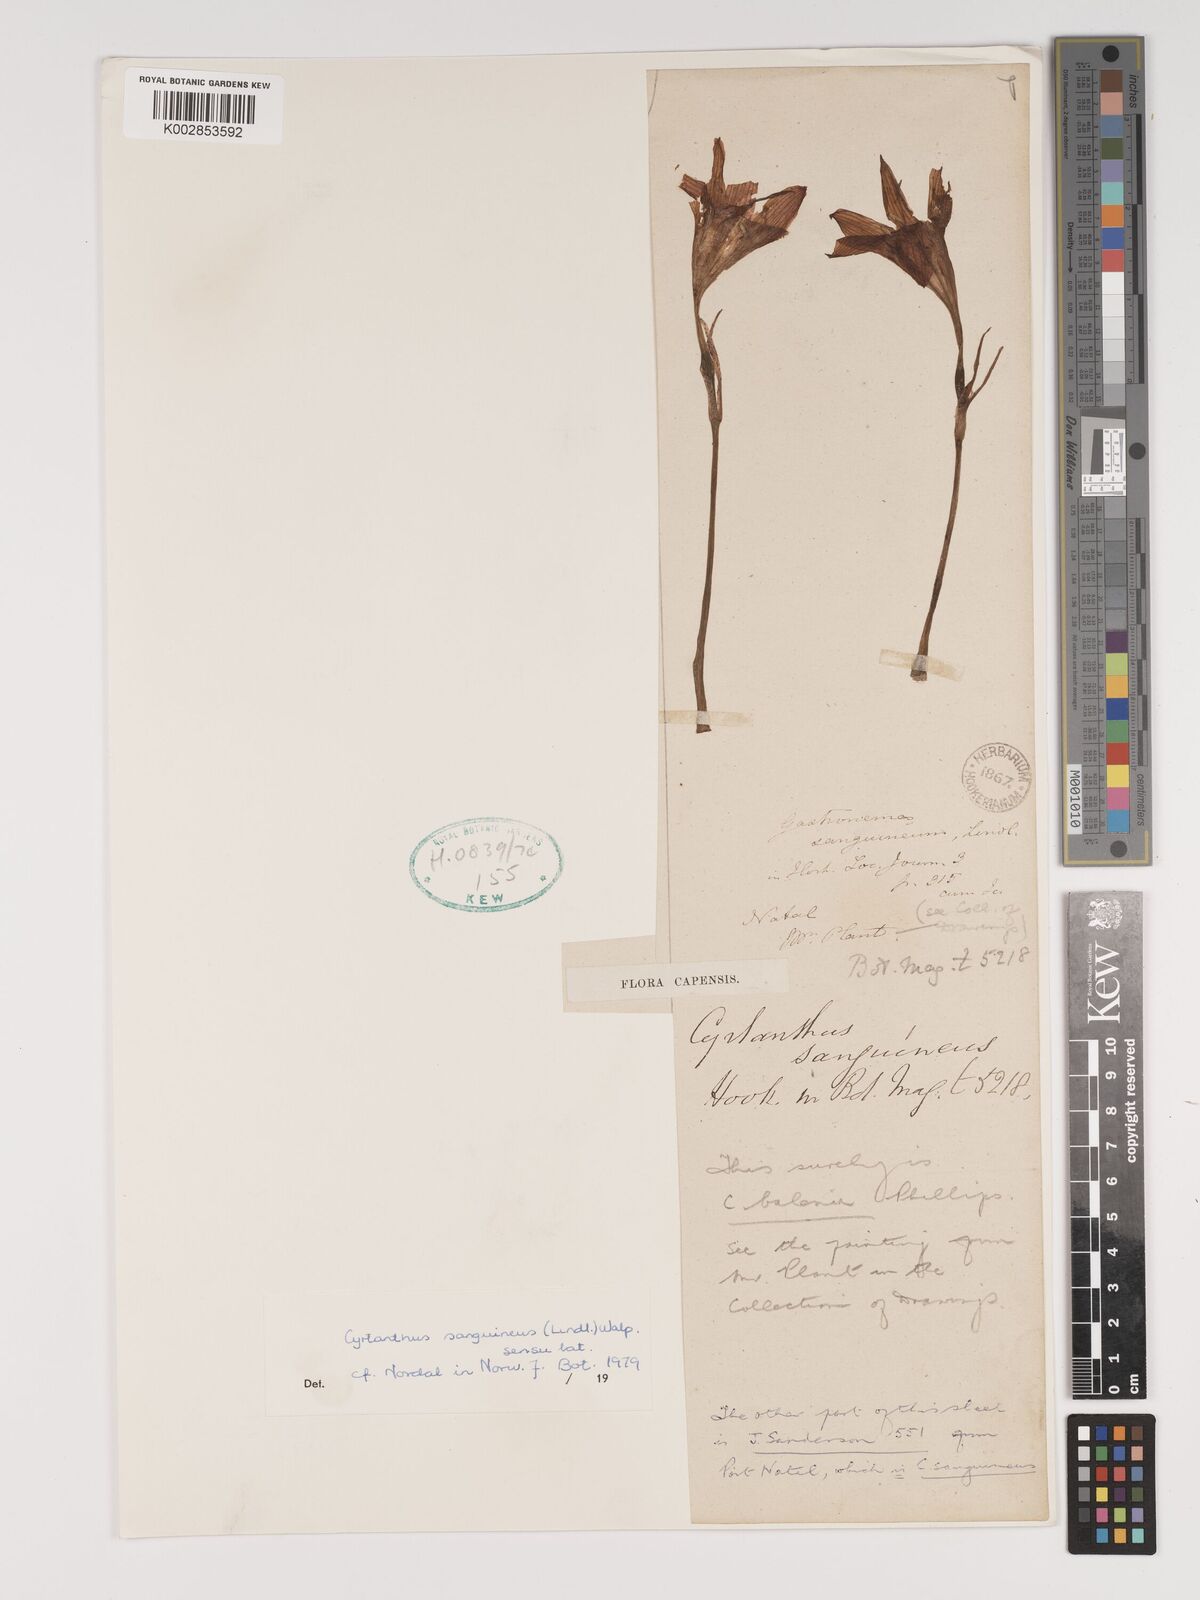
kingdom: Plantae
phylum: Tracheophyta
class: Liliopsida
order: Asparagales
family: Amaryllidaceae
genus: Cyrtanthus
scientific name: Cyrtanthus sanguineus
